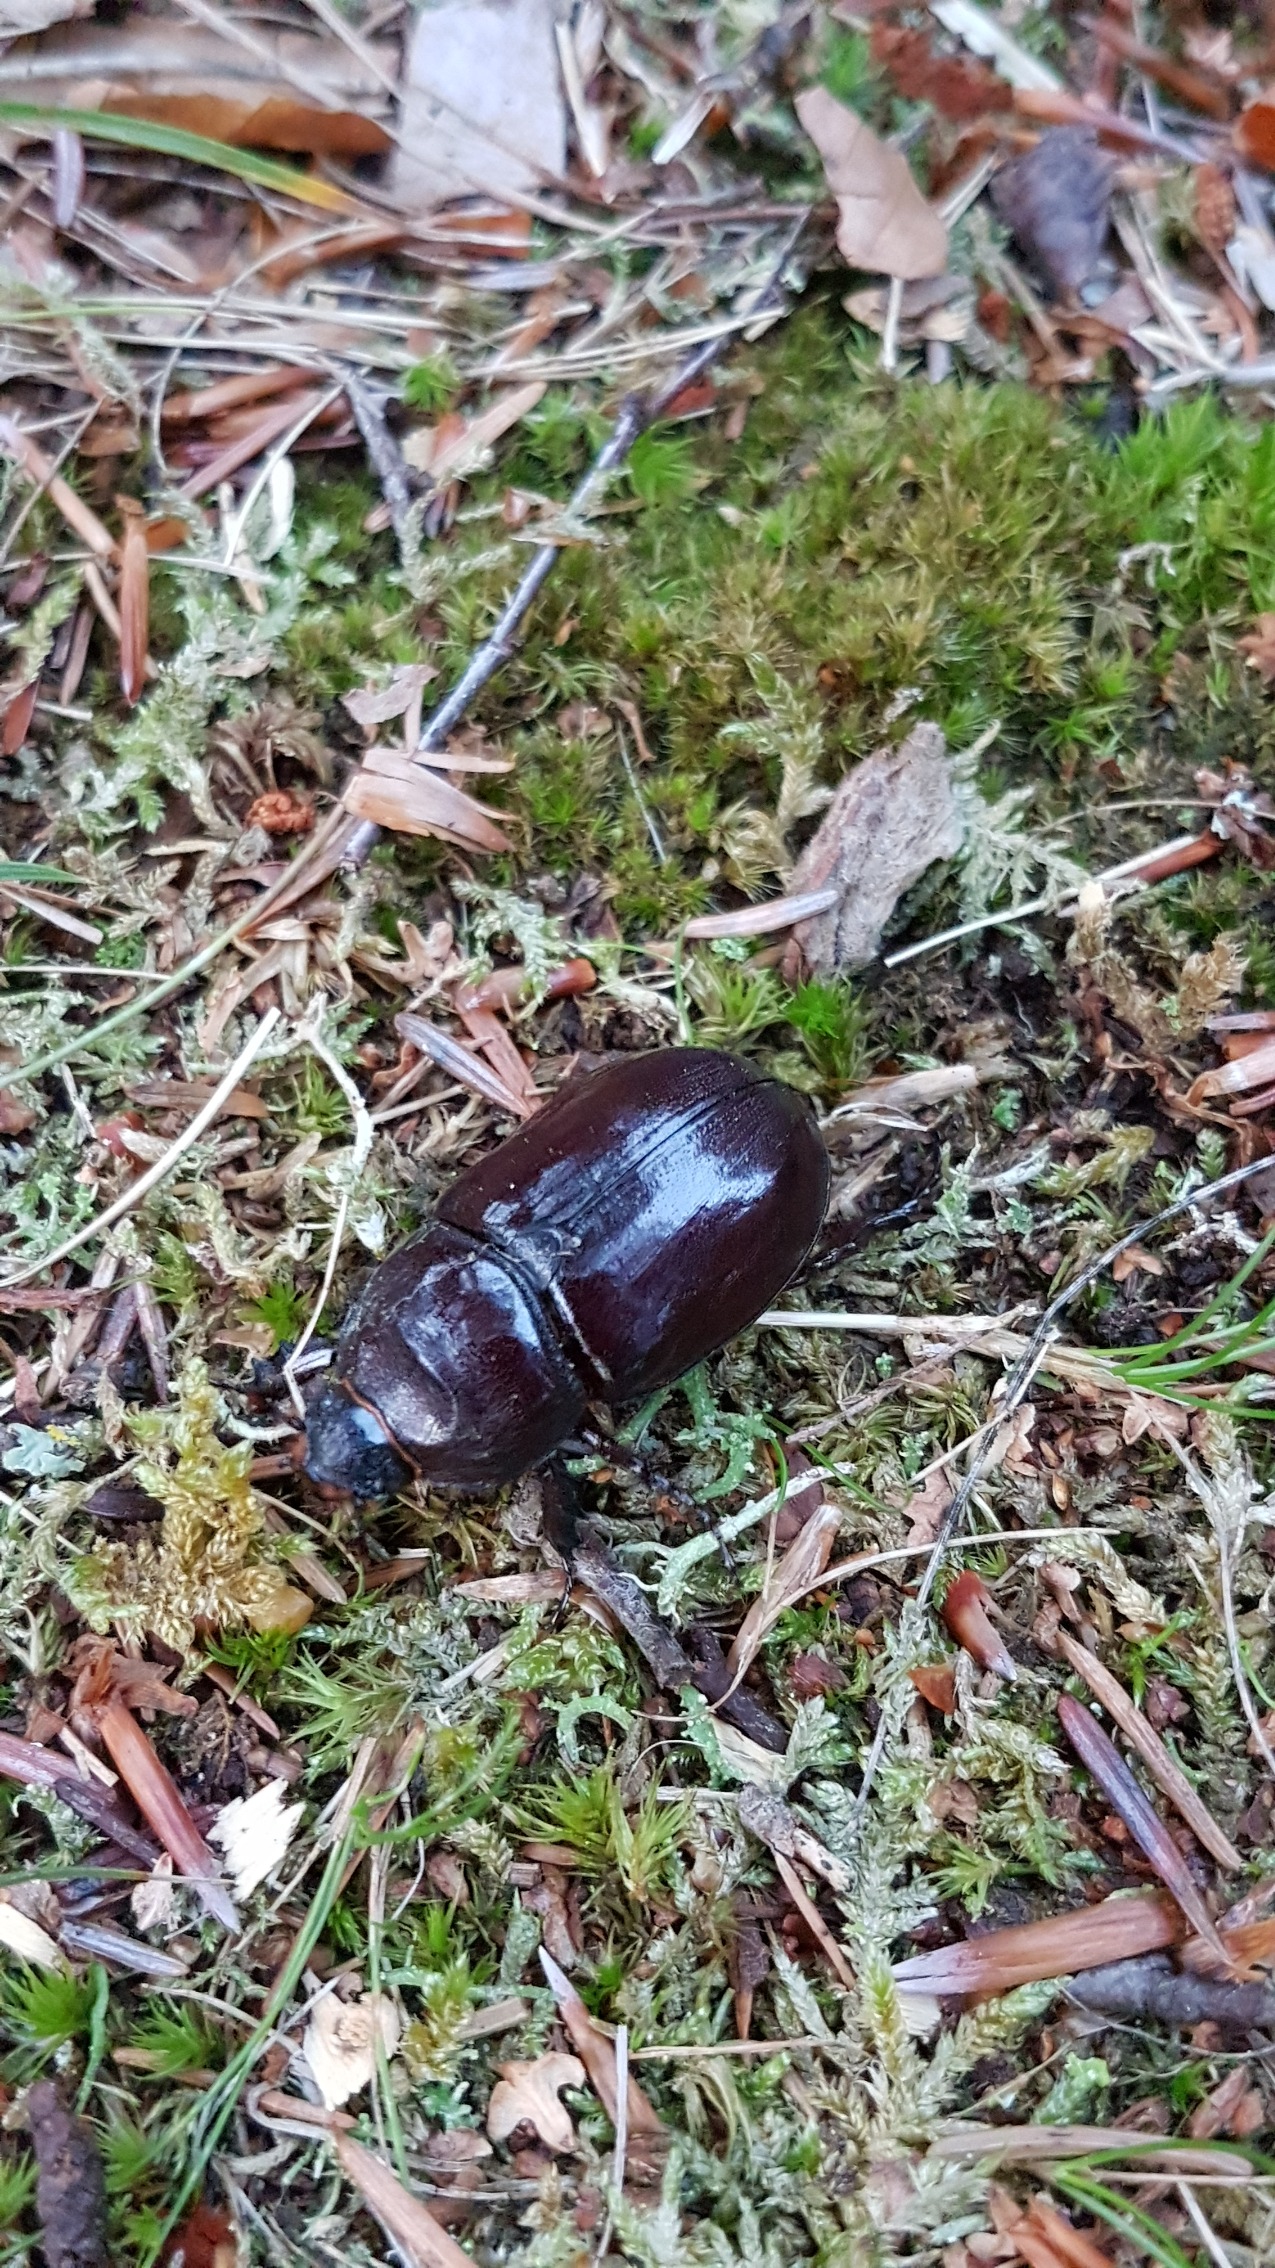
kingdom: Animalia
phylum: Arthropoda
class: Insecta
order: Coleoptera
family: Scarabaeidae
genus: Oryctes
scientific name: Oryctes nasicornis
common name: Næsehornsbille
